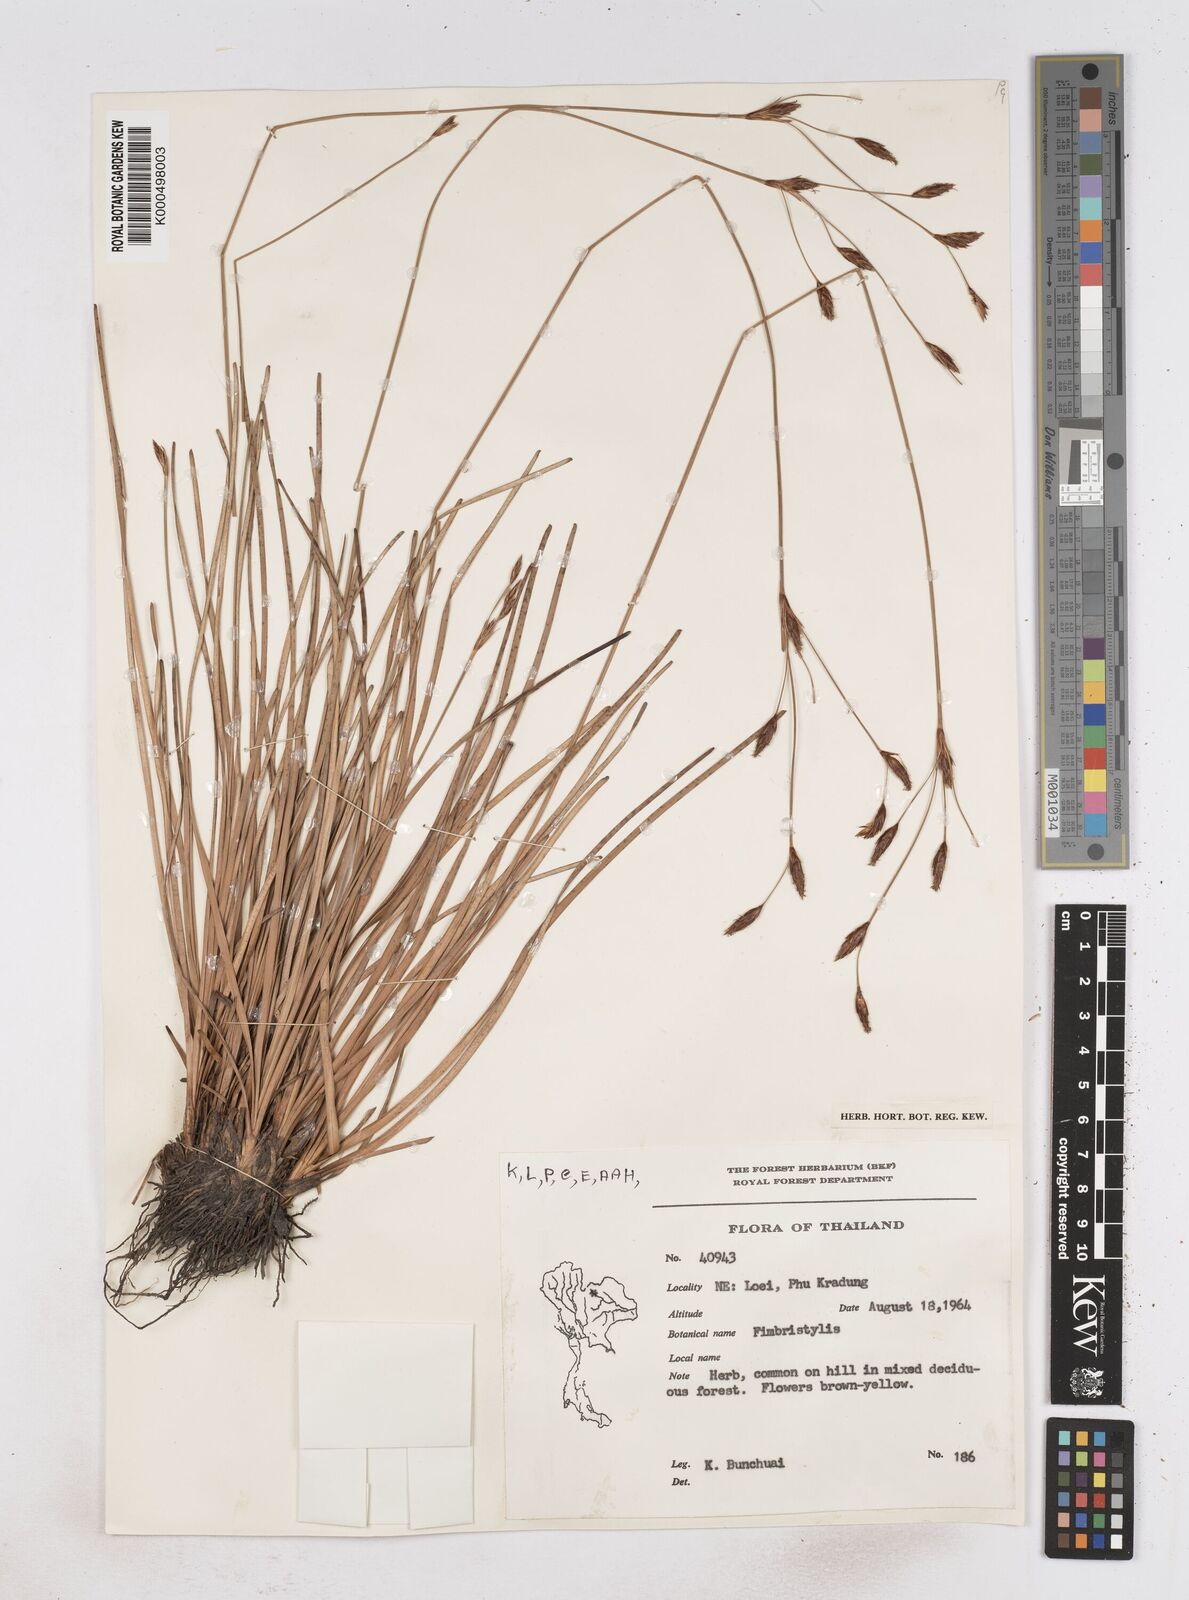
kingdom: Plantae
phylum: Tracheophyta
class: Liliopsida
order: Poales
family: Cyperaceae
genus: Fimbristylis
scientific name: Fimbristylis insignis
